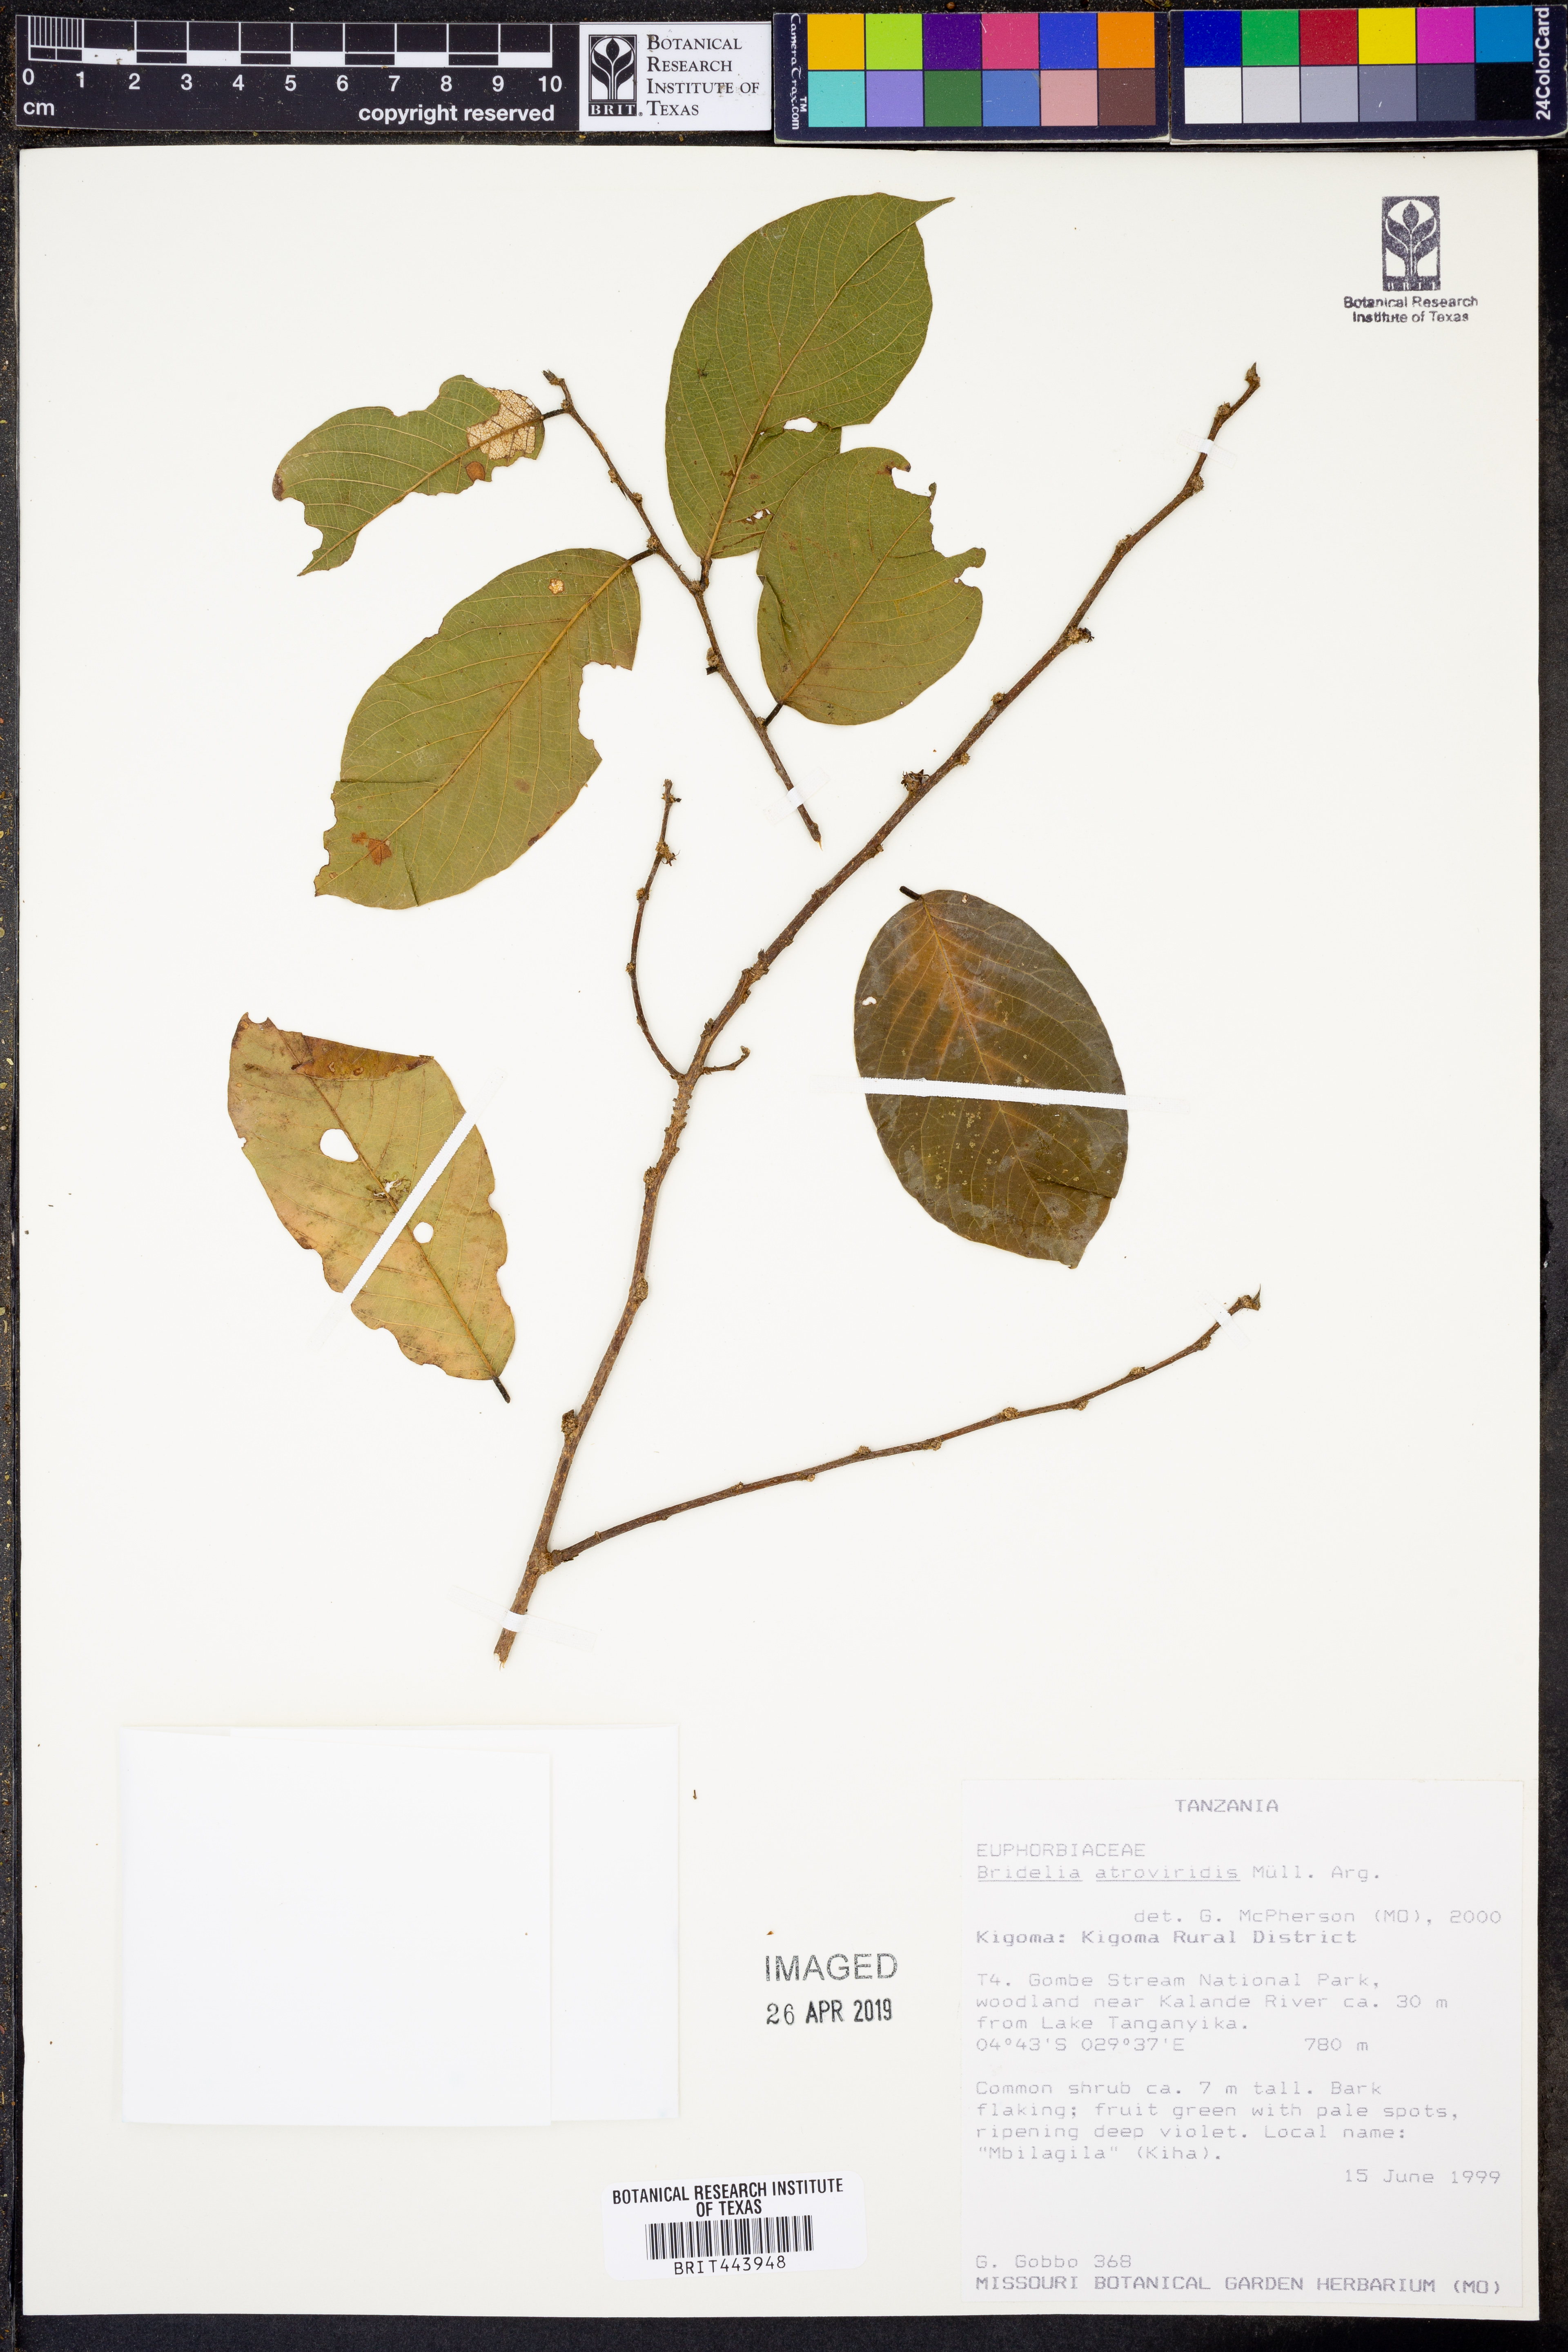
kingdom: Plantae
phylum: Tracheophyta
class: Magnoliopsida
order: Malpighiales
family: Phyllanthaceae
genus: Bridelia
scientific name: Bridelia atroviridis
